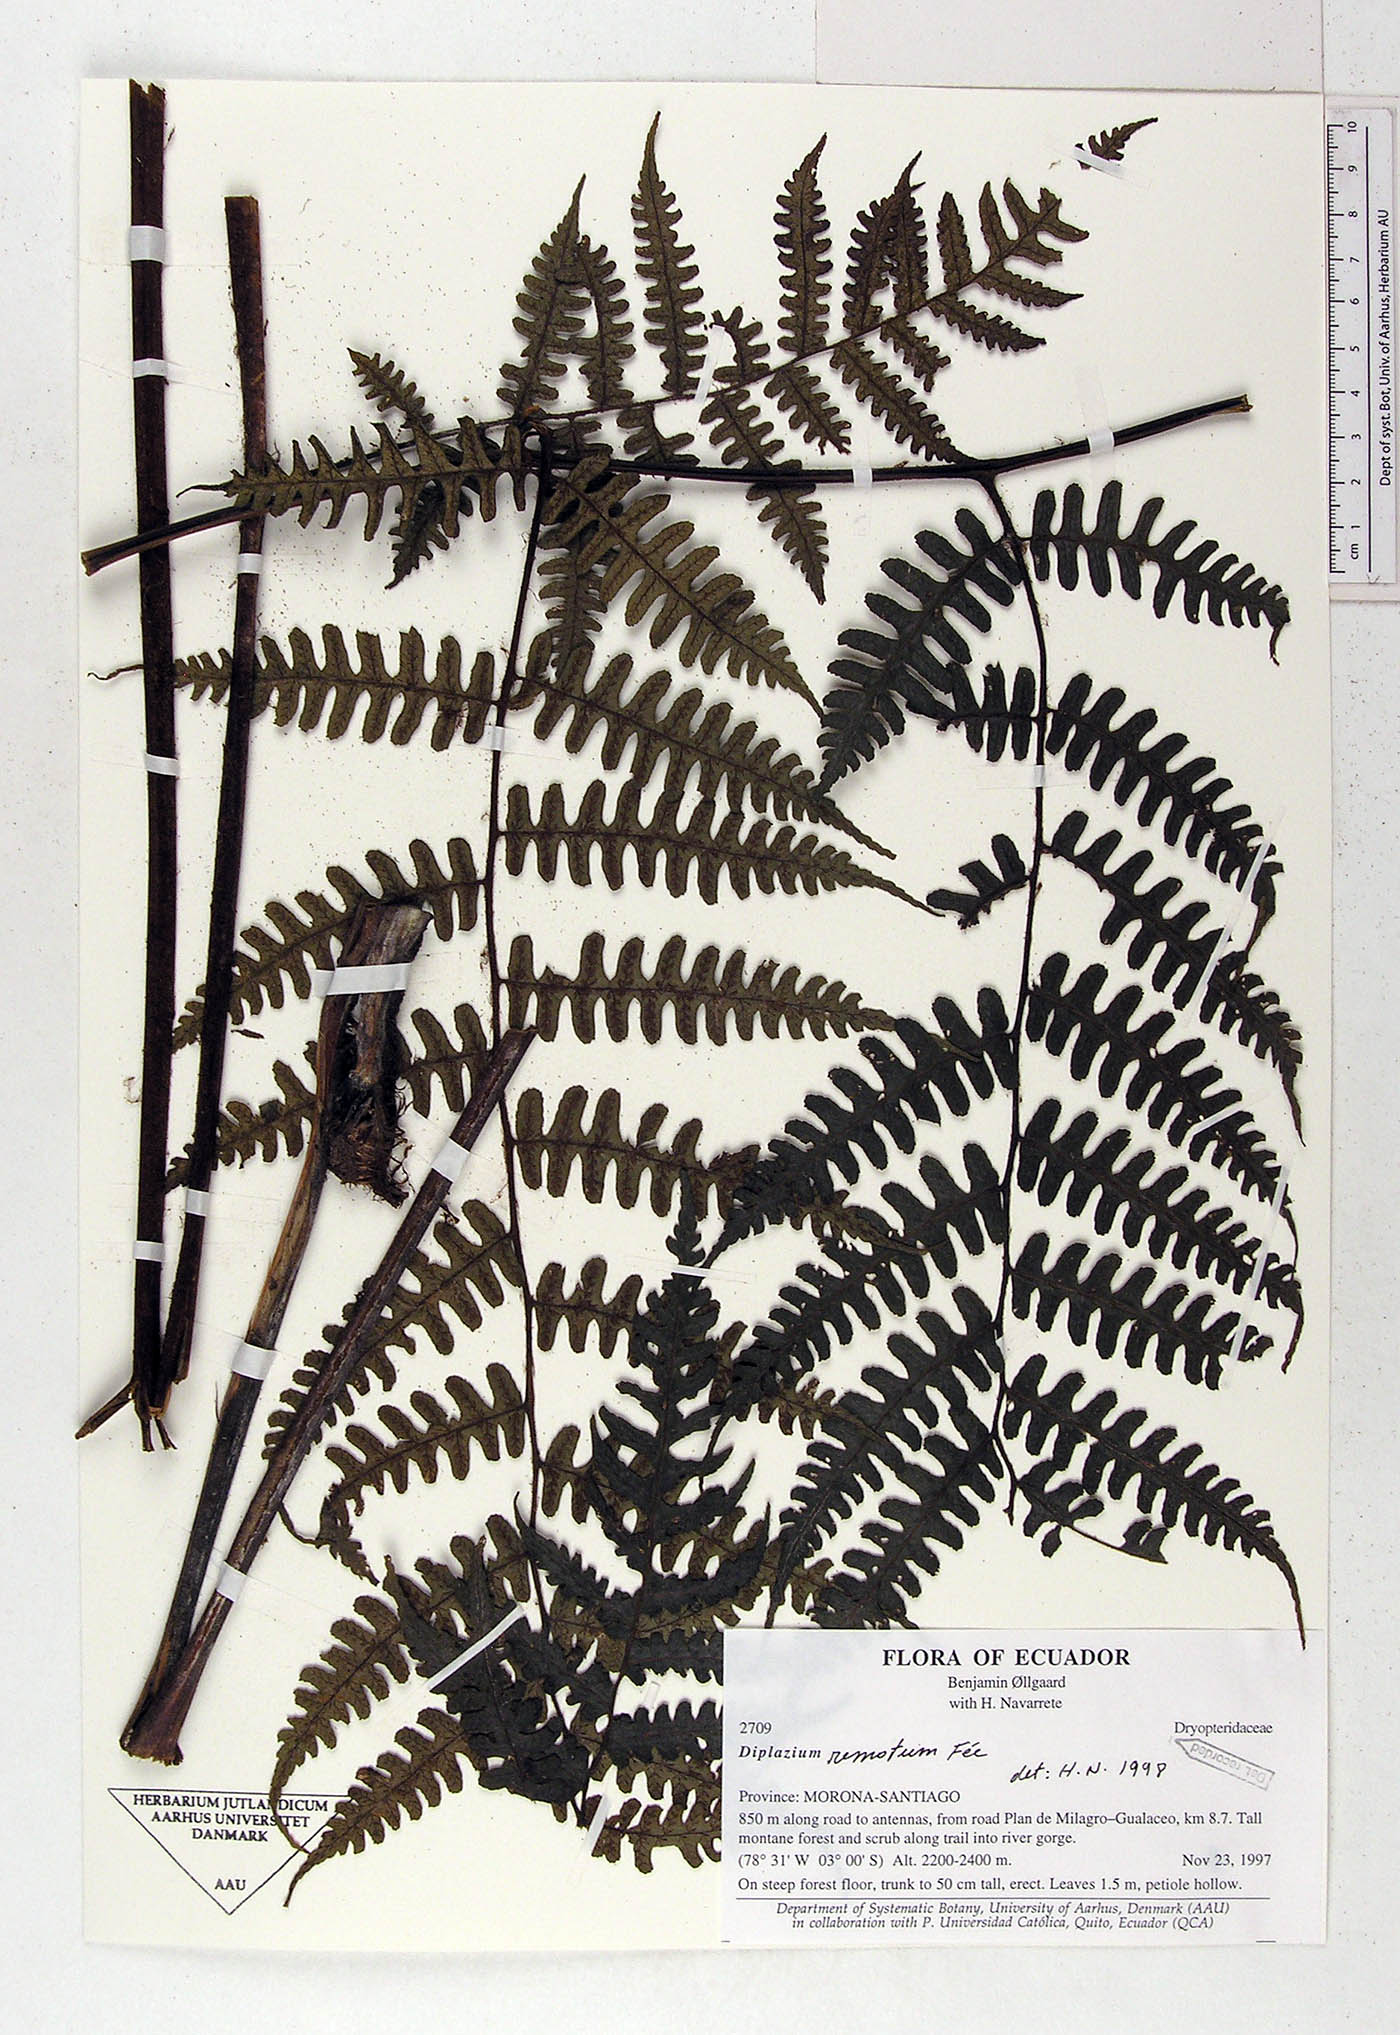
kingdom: Plantae
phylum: Tracheophyta
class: Polypodiopsida
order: Polypodiales
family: Athyriaceae
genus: Diplazium
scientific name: Diplazium rostratum
